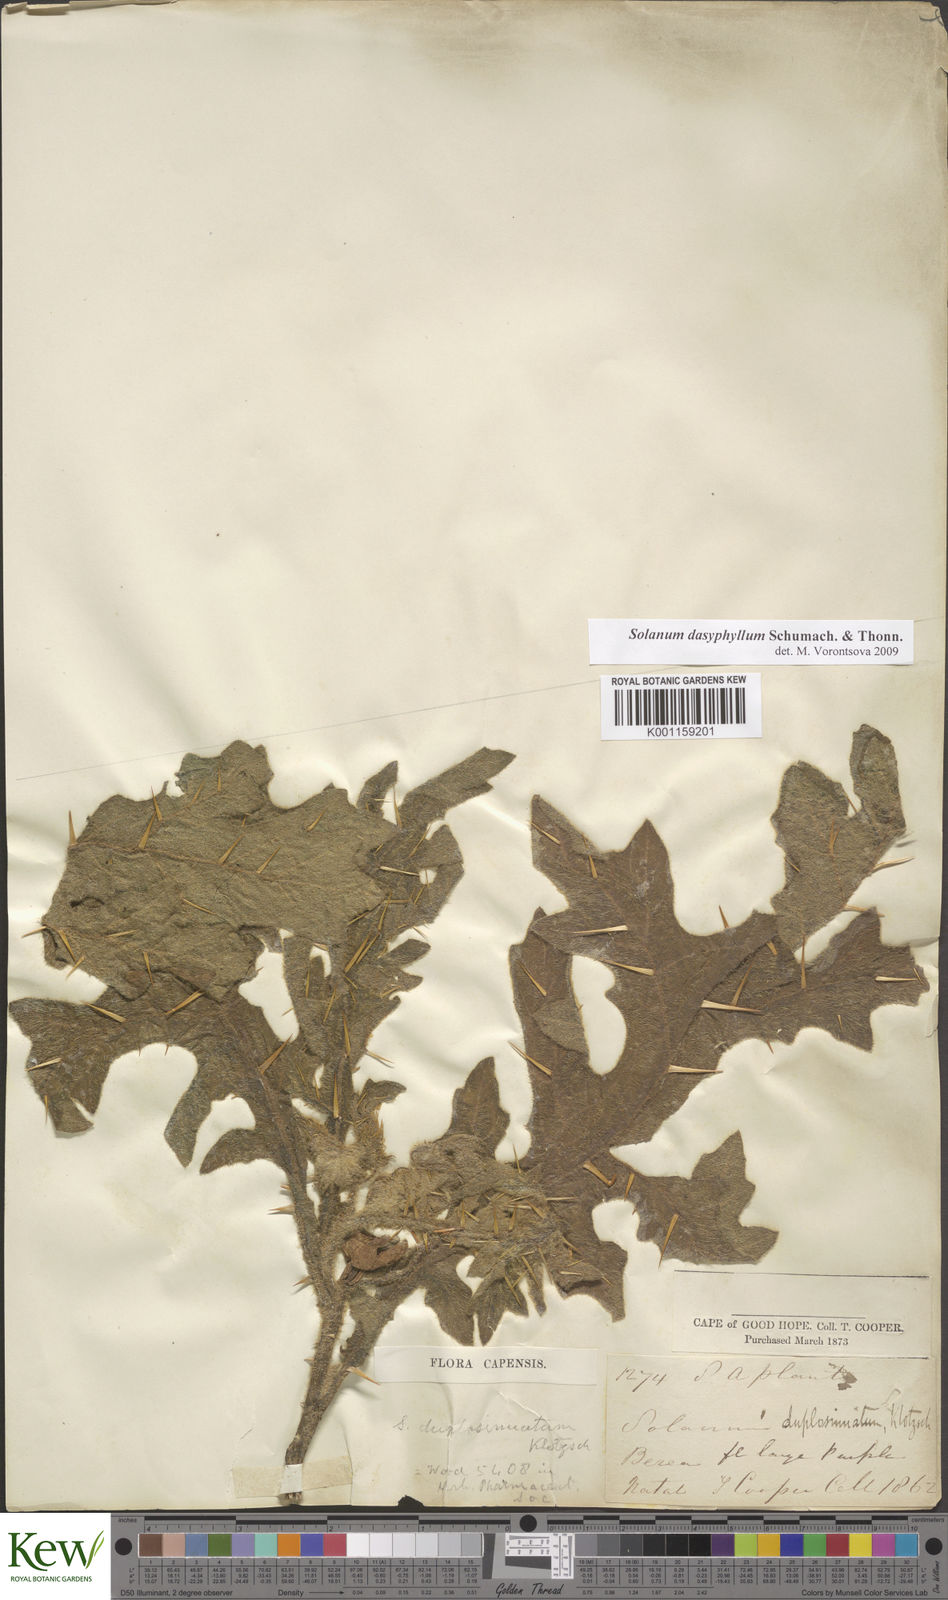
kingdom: Plantae
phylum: Tracheophyta
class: Magnoliopsida
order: Solanales
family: Solanaceae
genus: Solanum
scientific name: Solanum dasyphyllum
